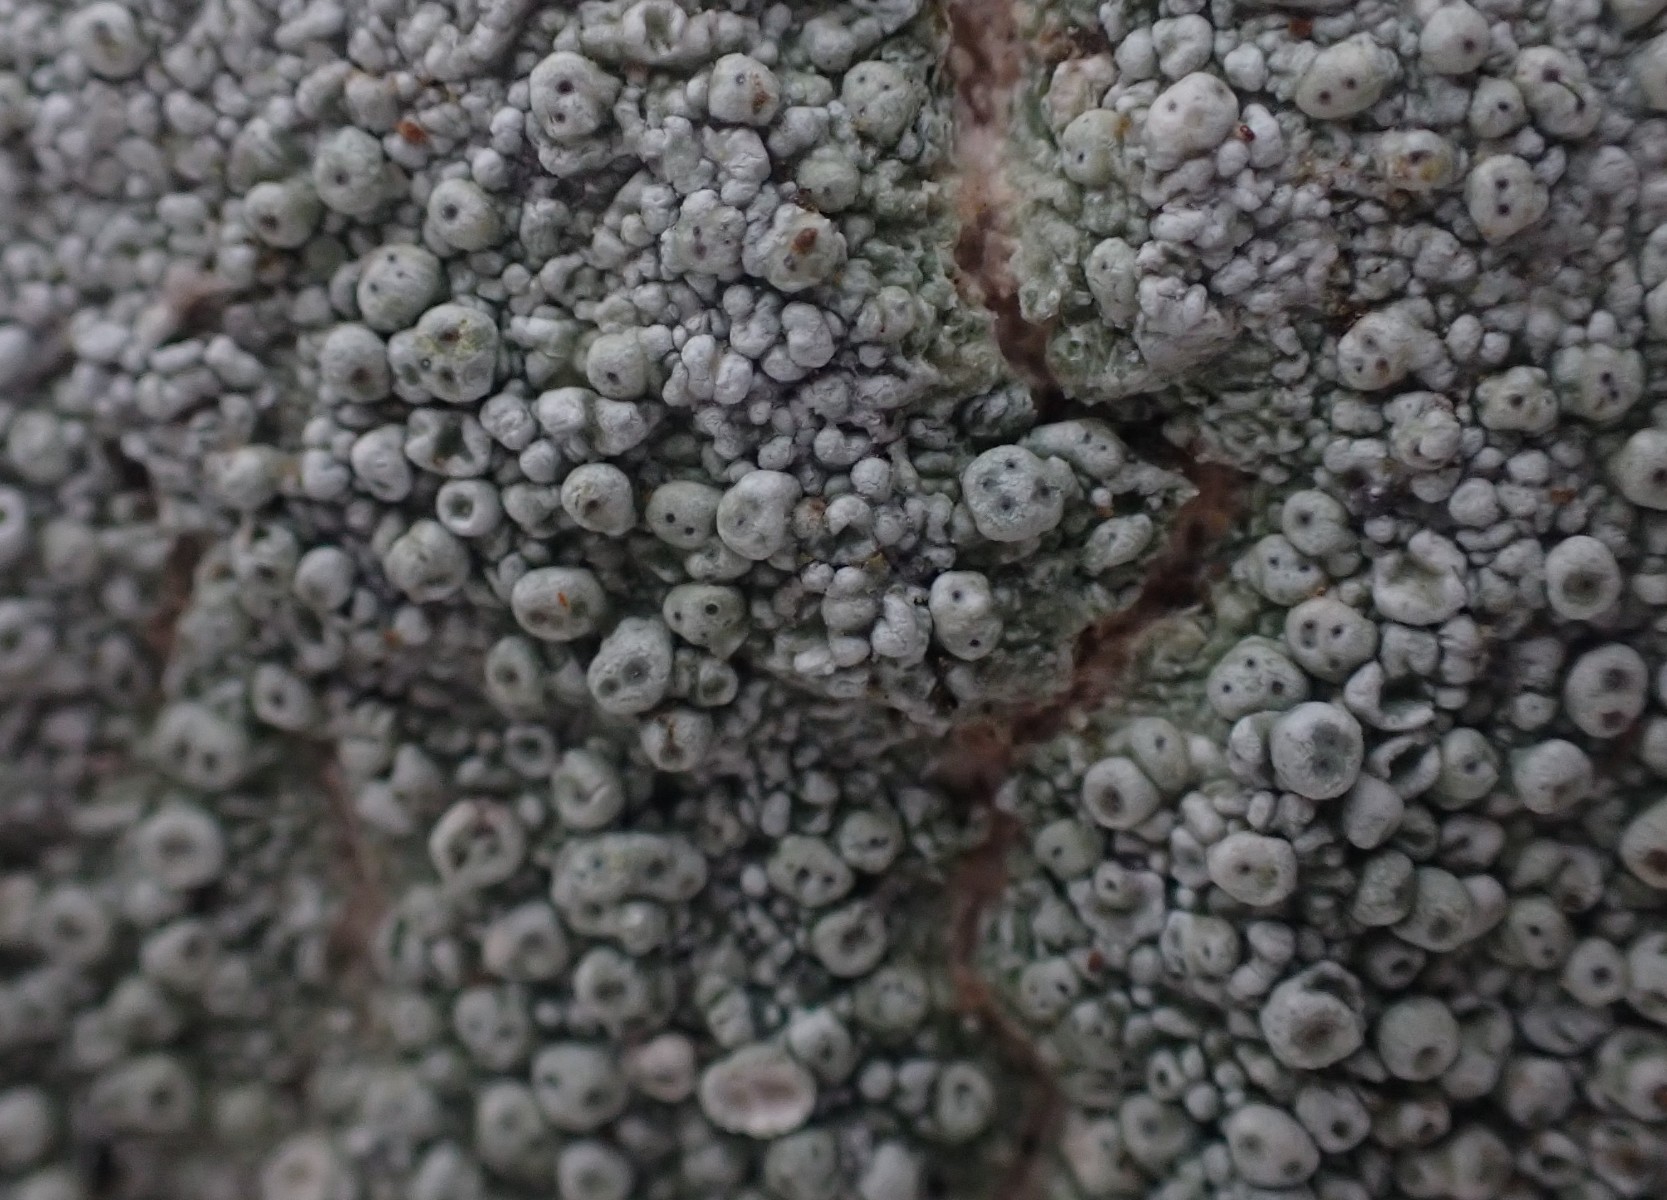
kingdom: Fungi
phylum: Ascomycota
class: Lecanoromycetes
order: Pertusariales
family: Pertusariaceae
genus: Pertusaria
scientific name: Pertusaria pertusa
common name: almindelig prikvortelav
